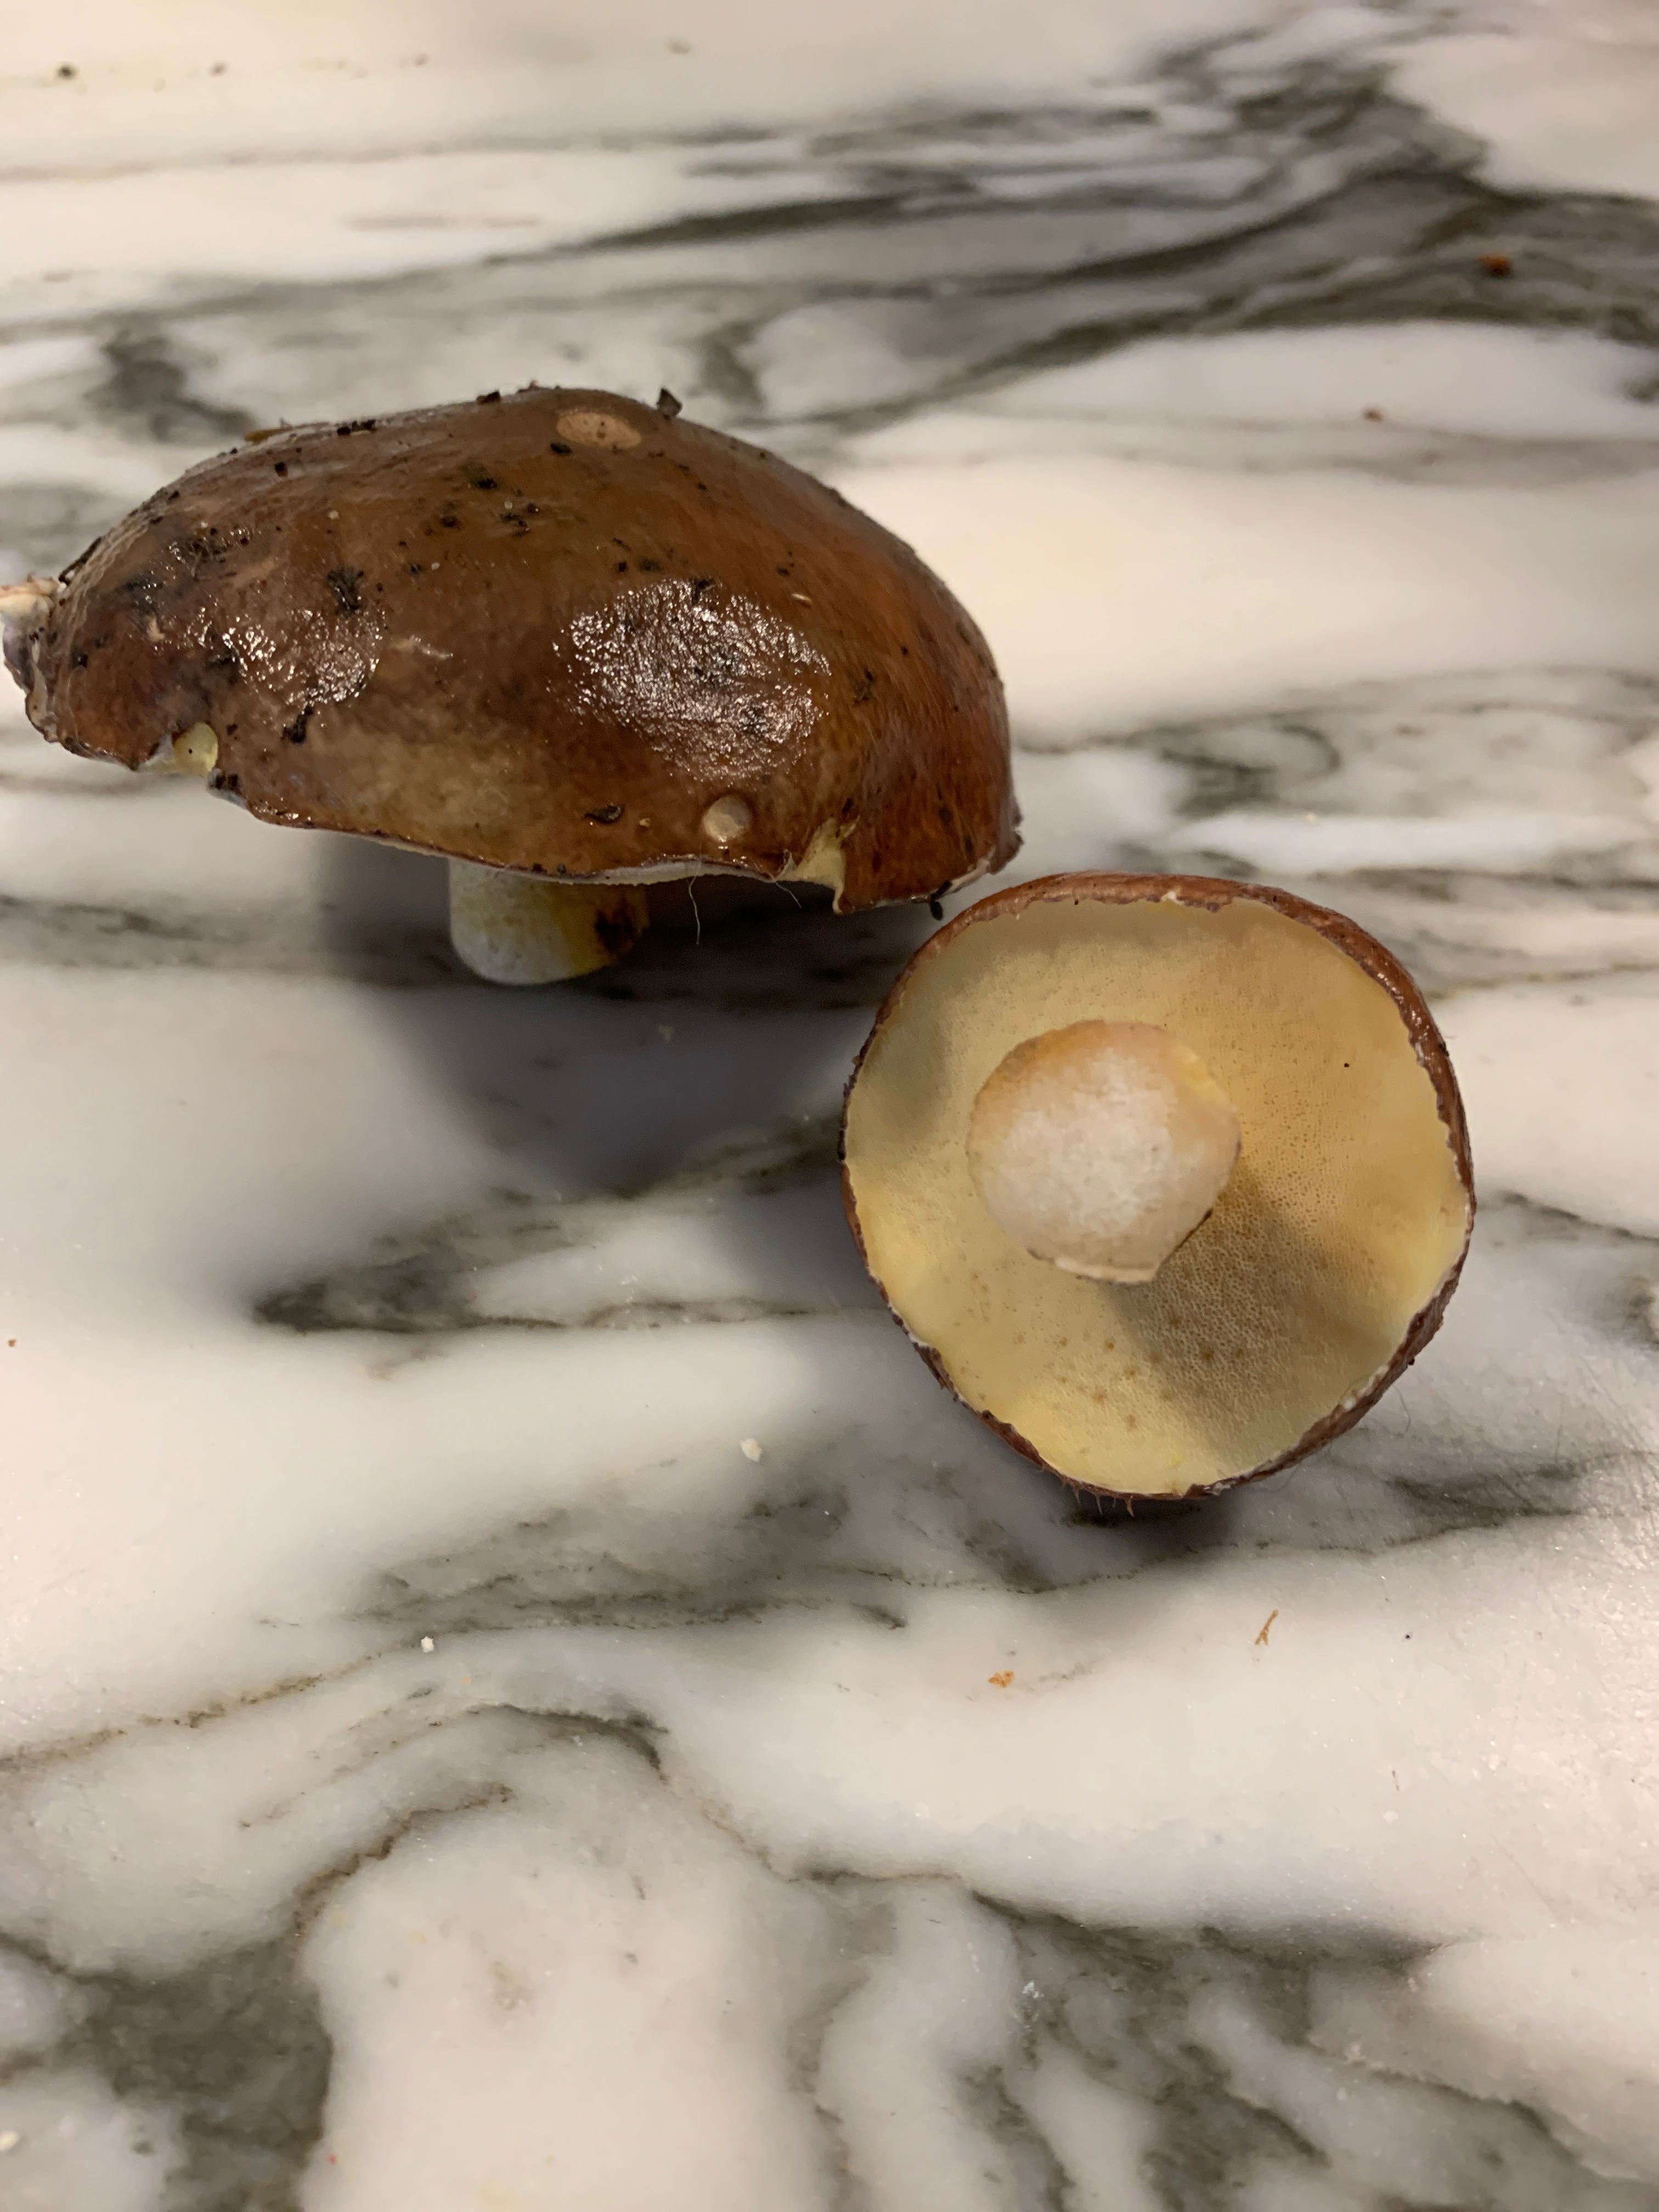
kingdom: Fungi
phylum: Basidiomycota
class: Agaricomycetes
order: Boletales
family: Suillaceae
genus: Suillus
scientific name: Suillus luteus
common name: brungul slimrørhat
